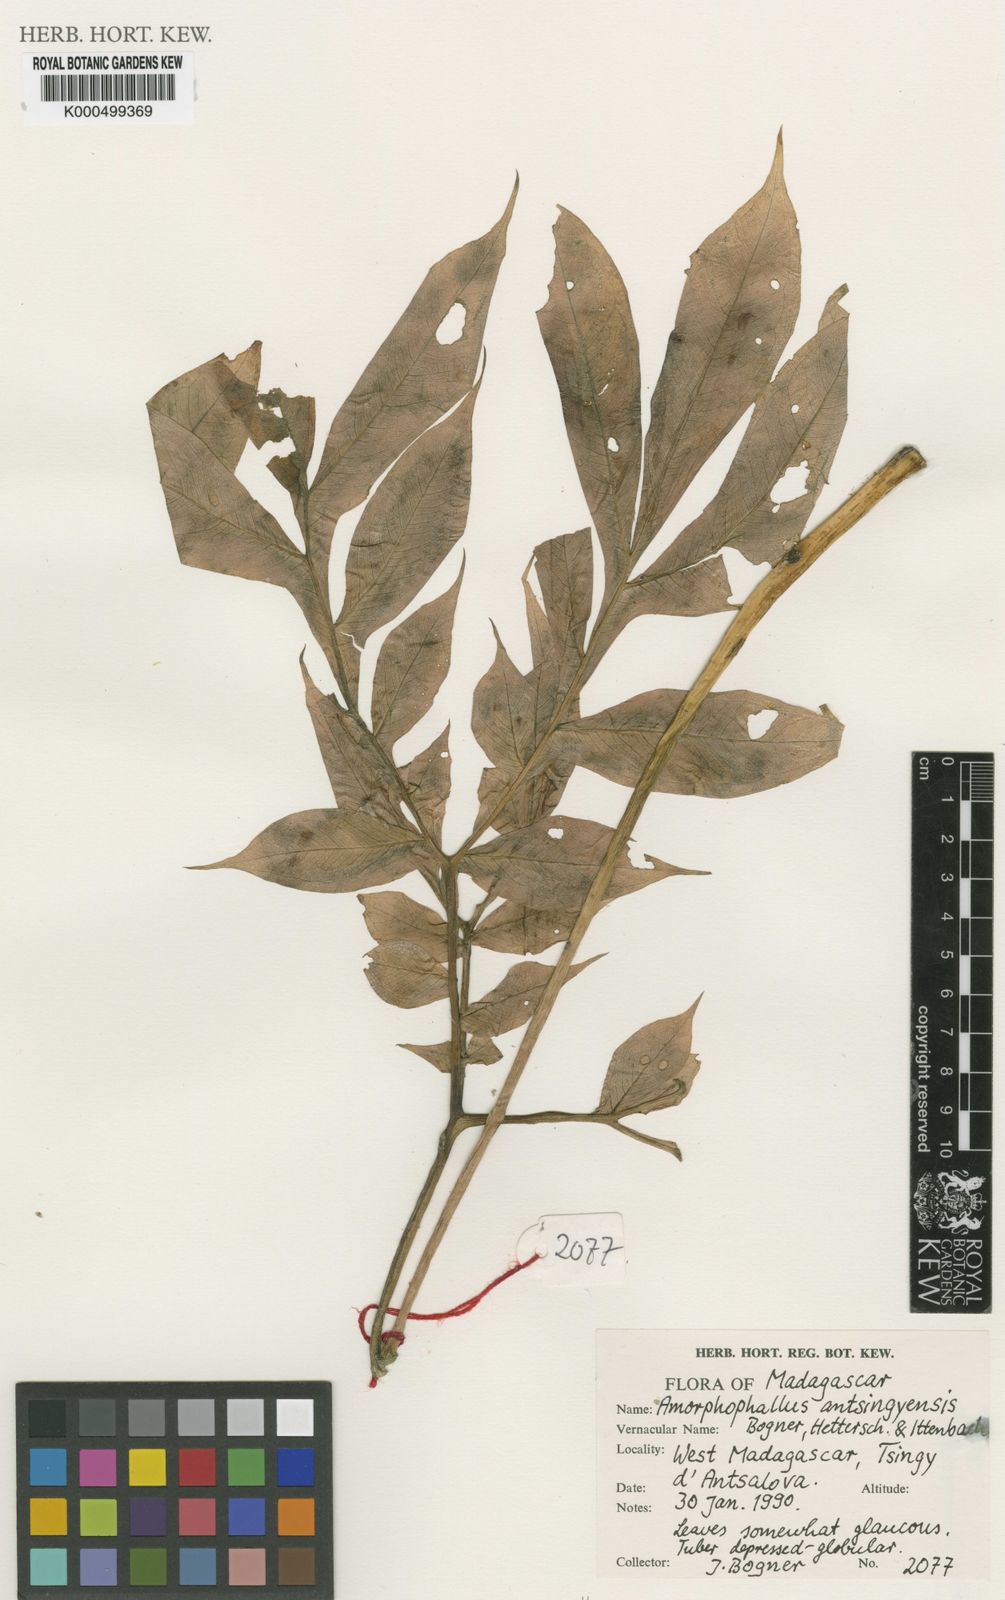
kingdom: Plantae
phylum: Tracheophyta
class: Liliopsida
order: Alismatales
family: Araceae
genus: Amorphophallus
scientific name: Amorphophallus antsingyensis
